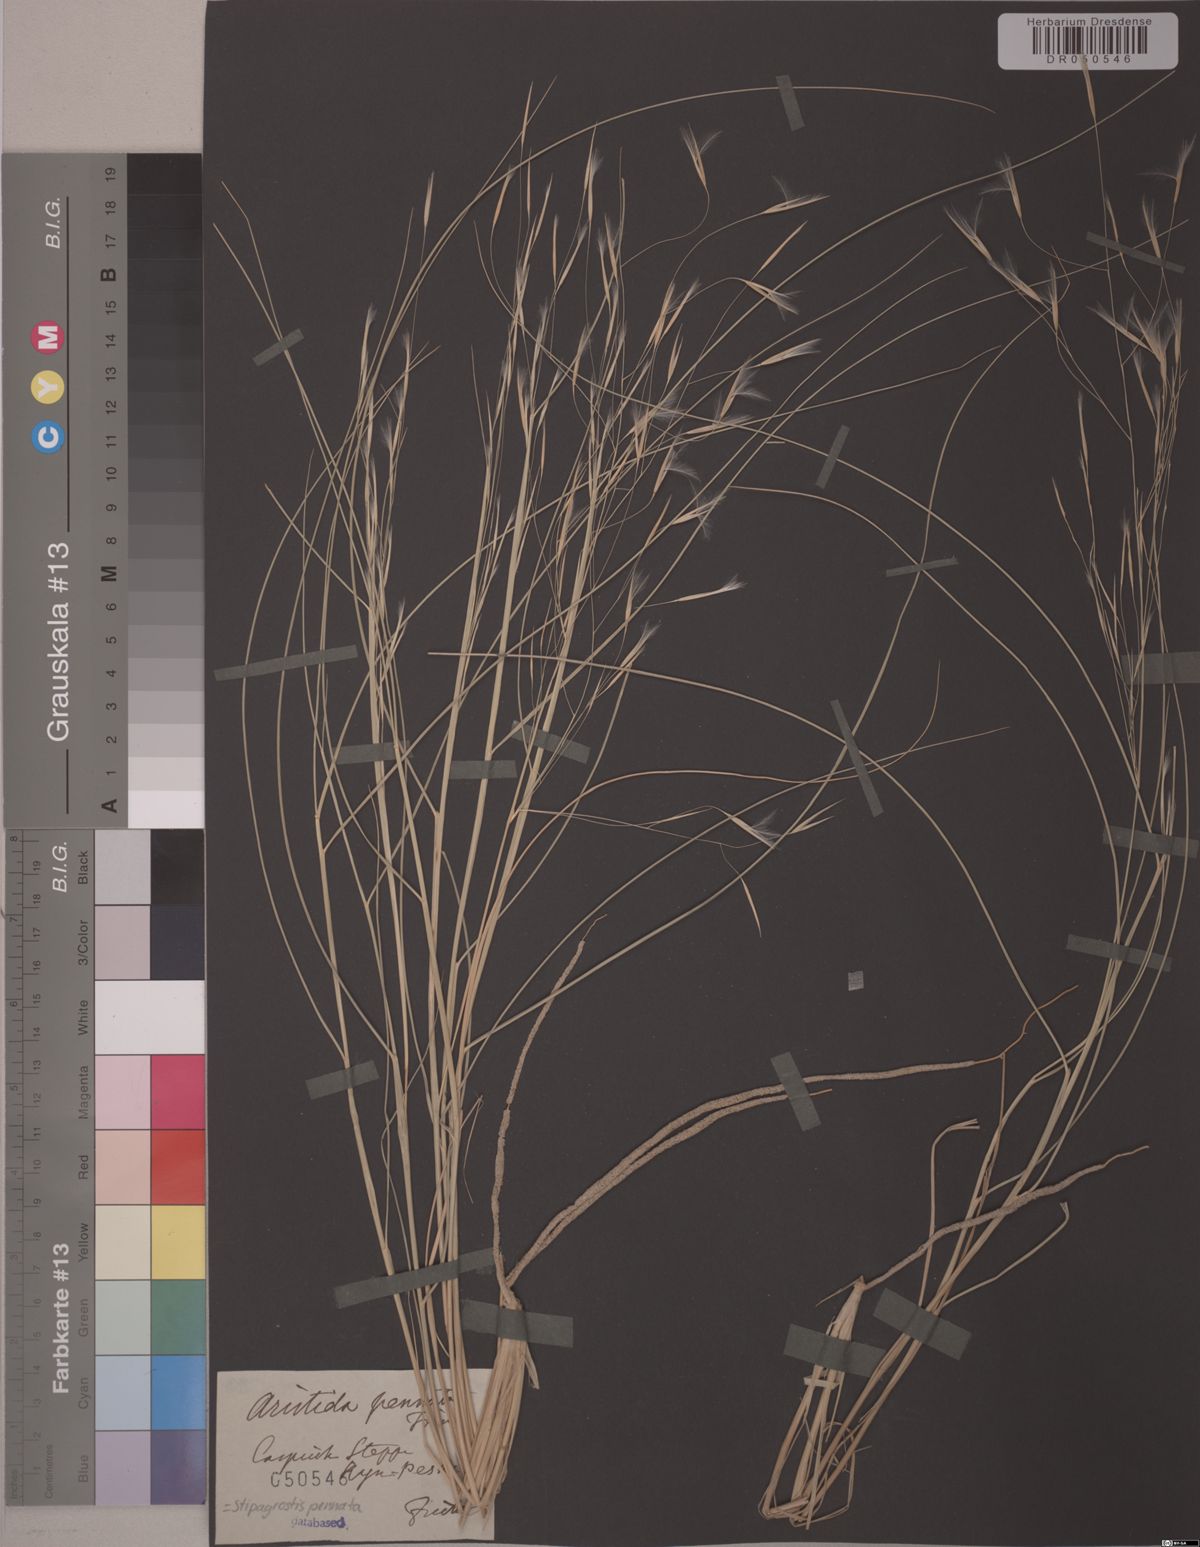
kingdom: Plantae
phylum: Tracheophyta
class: Liliopsida
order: Poales
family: Poaceae
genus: Stipagrostis
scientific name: Stipagrostis pennata
